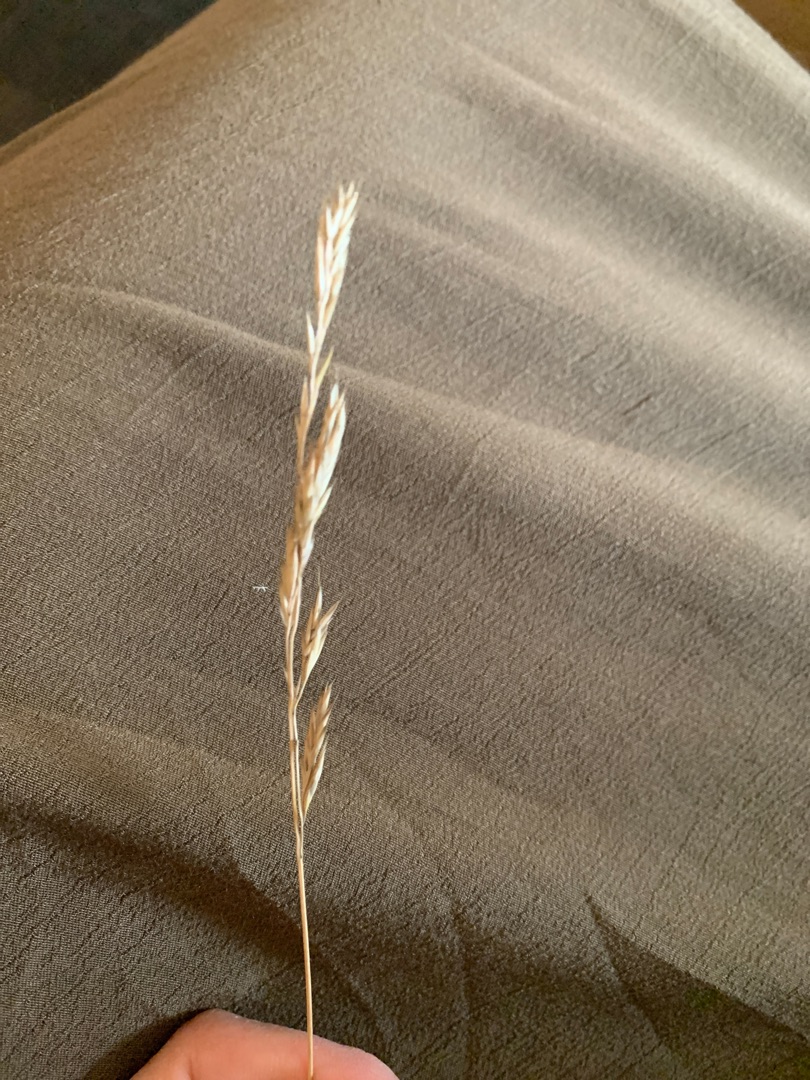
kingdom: Plantae
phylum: Tracheophyta
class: Liliopsida
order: Poales
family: Poaceae
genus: Festuca
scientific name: Festuca
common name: Svingelslægten
